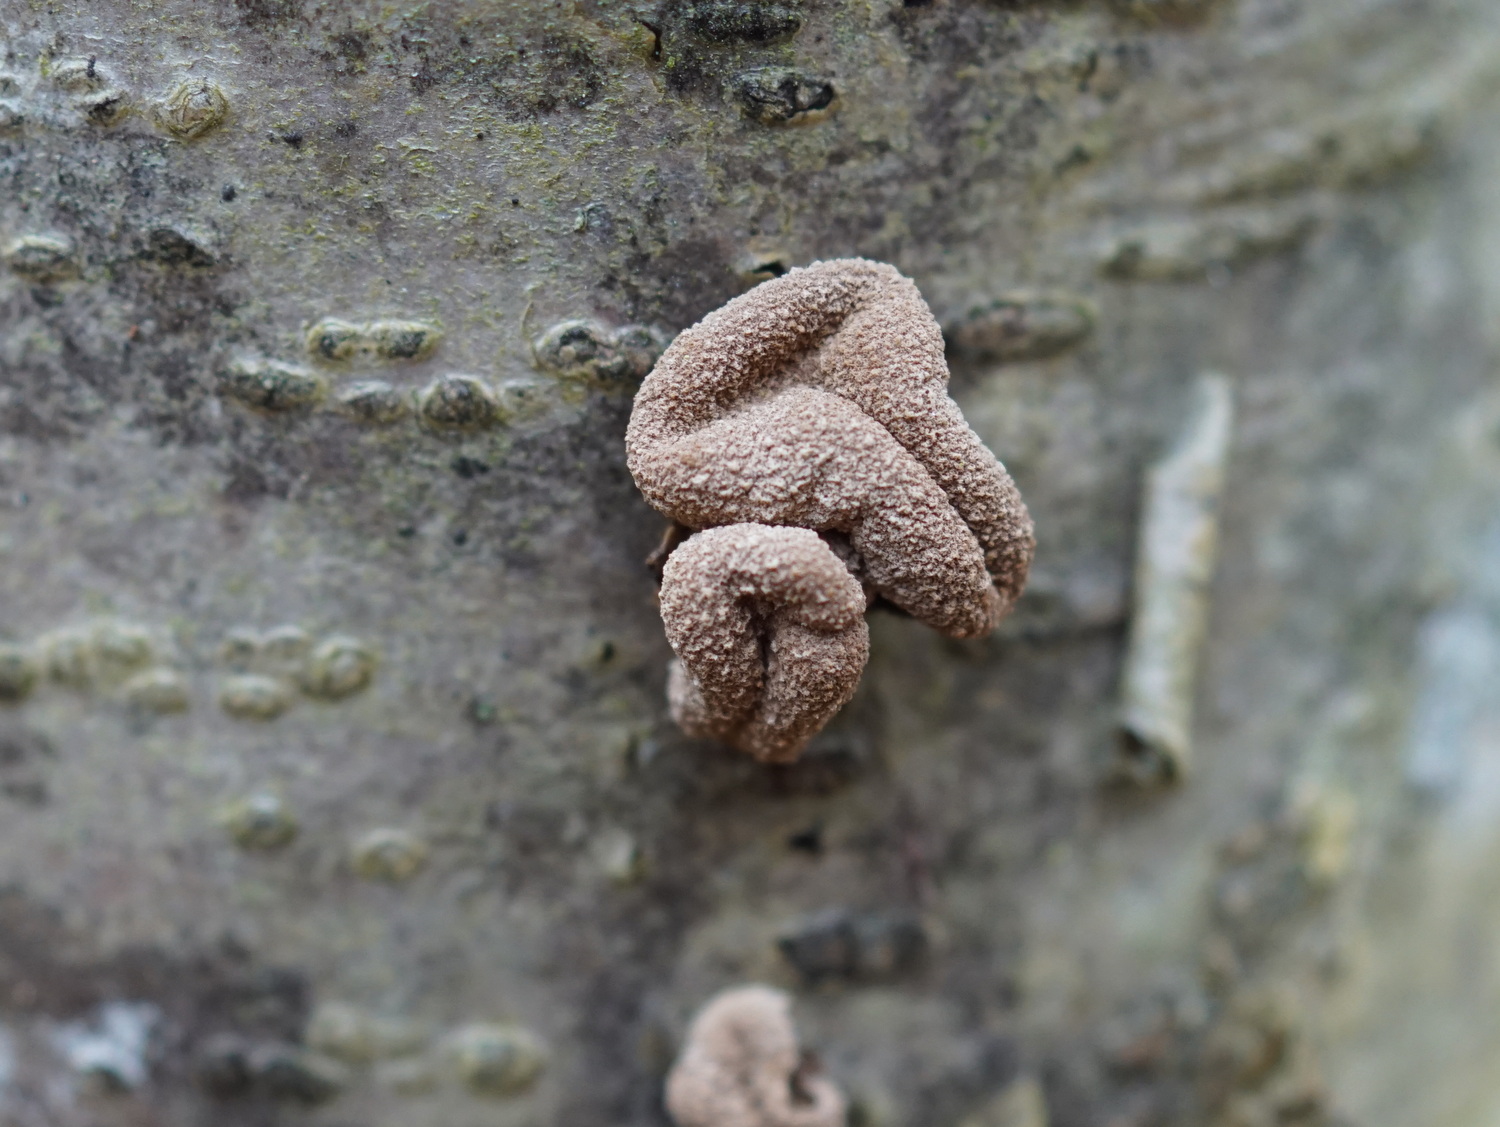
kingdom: Fungi
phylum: Ascomycota
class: Leotiomycetes
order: Helotiales
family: Cenangiaceae
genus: Encoelia
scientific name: Encoelia furfuracea
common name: hassel-læderskive
